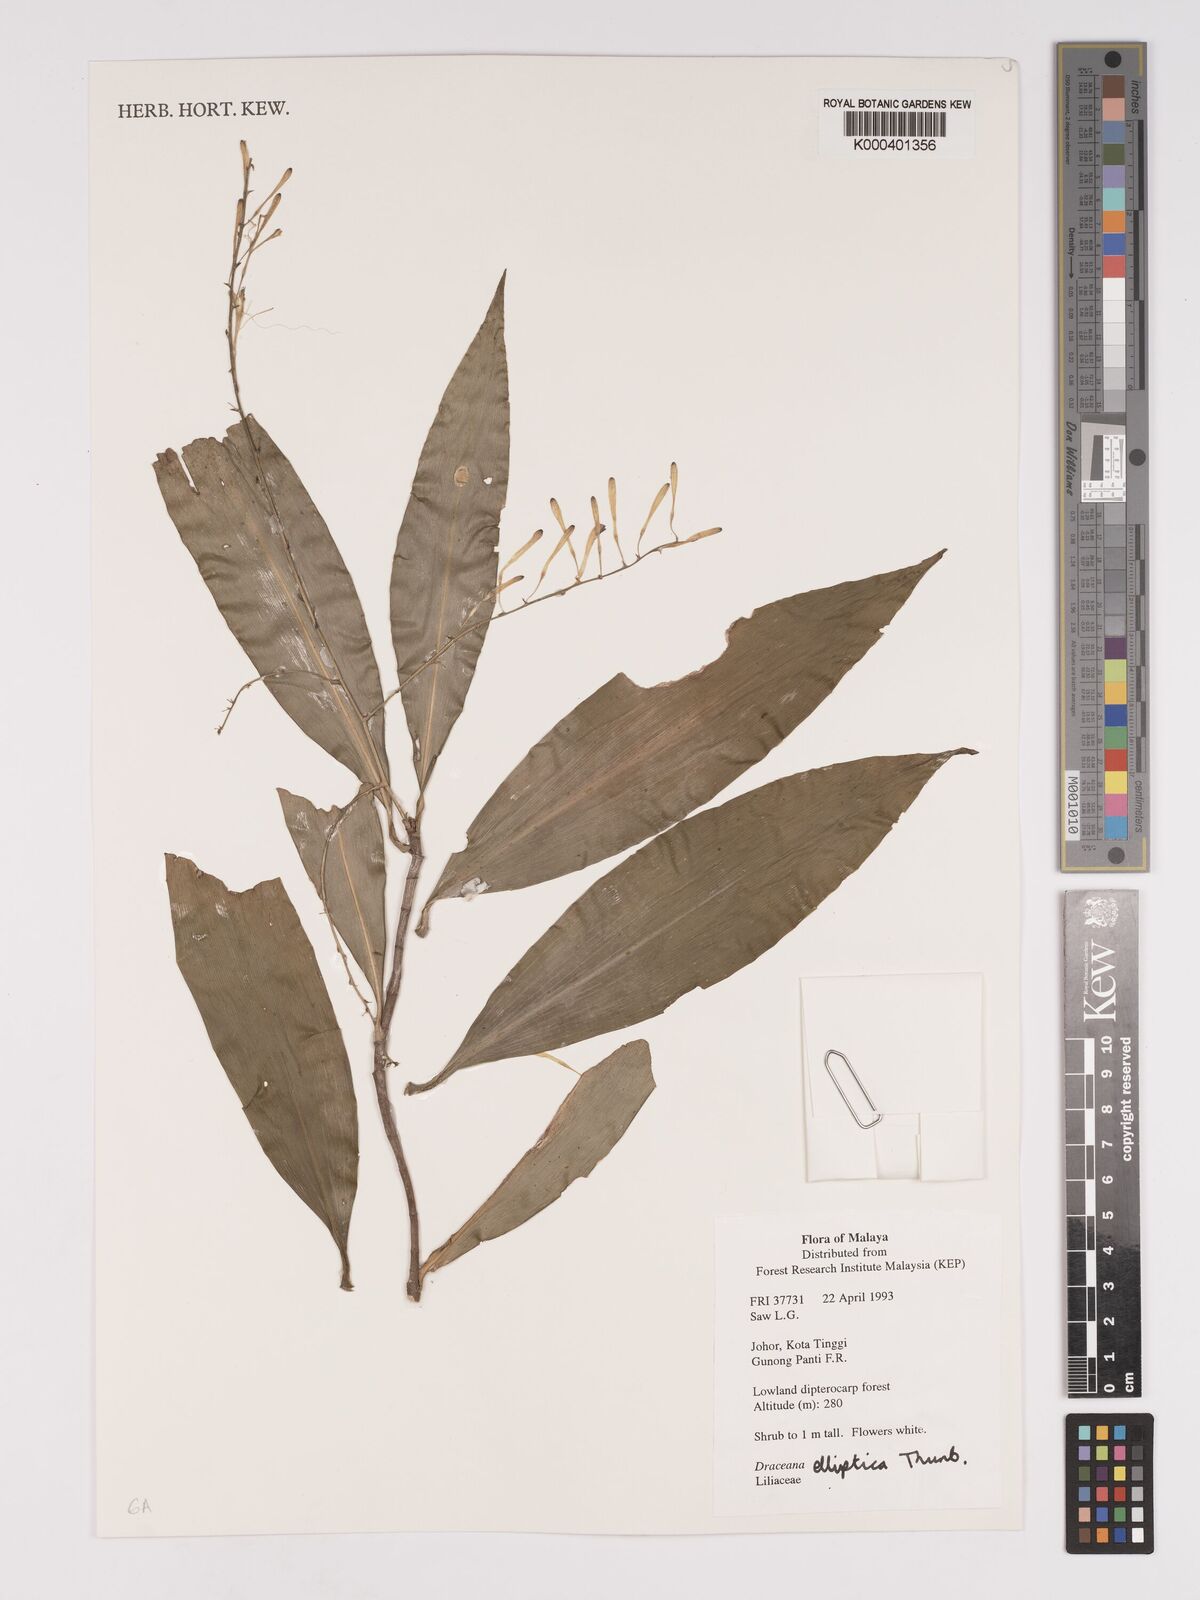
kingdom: Plantae
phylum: Tracheophyta
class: Liliopsida
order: Asparagales
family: Asparagaceae
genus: Dracaena
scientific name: Dracaena elliptica
